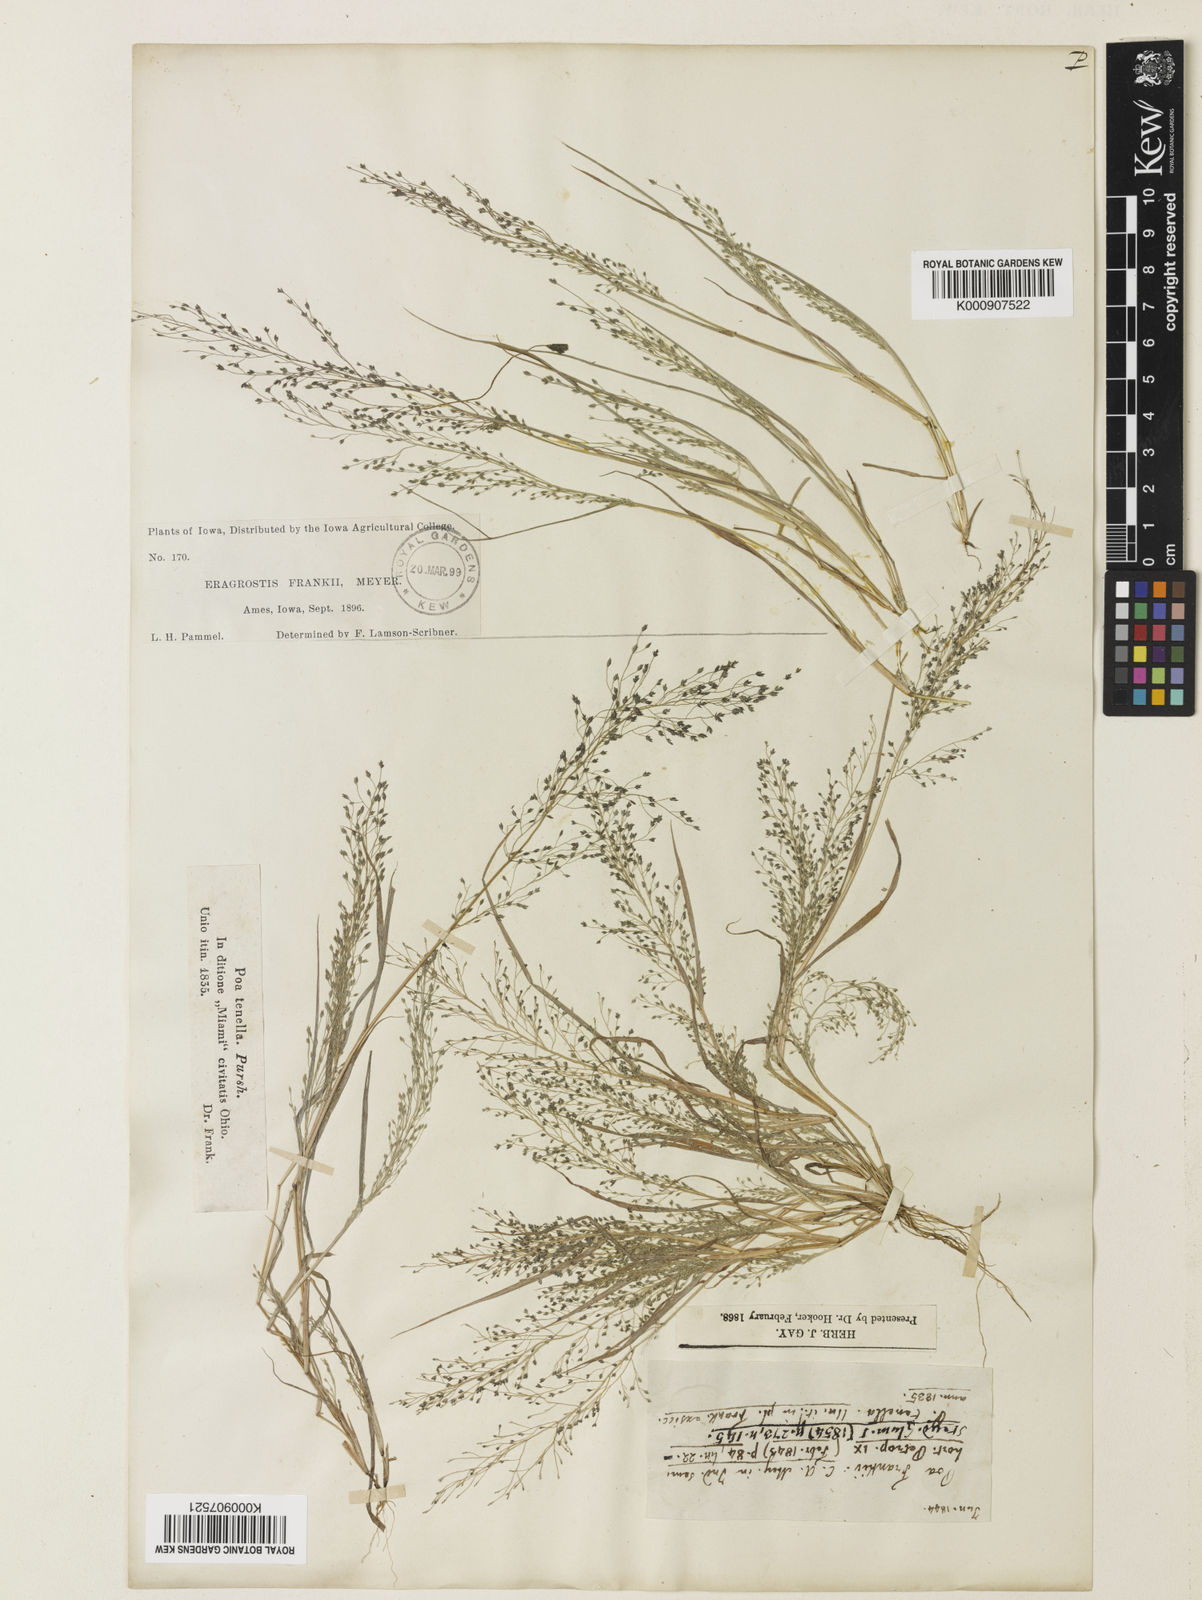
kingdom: Plantae
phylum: Tracheophyta
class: Liliopsida
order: Poales
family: Poaceae
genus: Eragrostis
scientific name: Eragrostis
